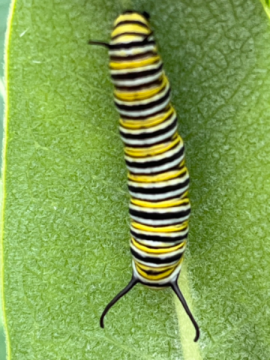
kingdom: Animalia
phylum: Arthropoda
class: Insecta
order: Lepidoptera
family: Nymphalidae
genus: Danaus
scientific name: Danaus plexippus
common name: Monarch
